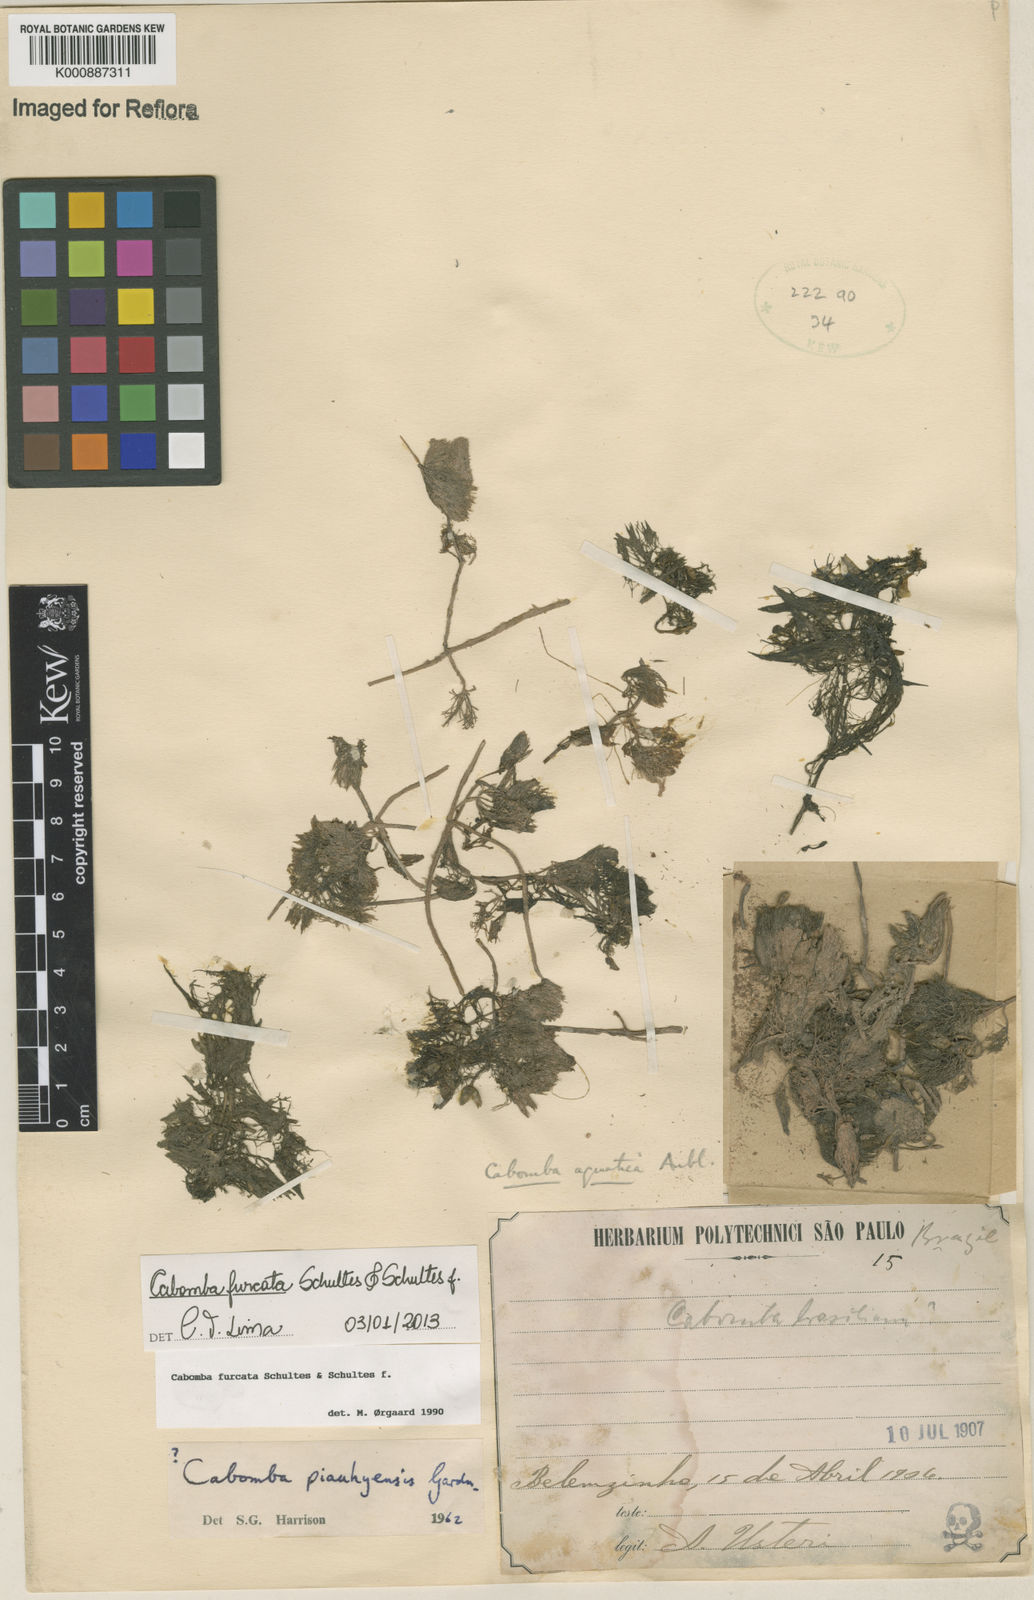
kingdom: Plantae
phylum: Tracheophyta
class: Magnoliopsida
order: Nymphaeales
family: Cabombaceae
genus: Cabomba
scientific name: Cabomba furcata
